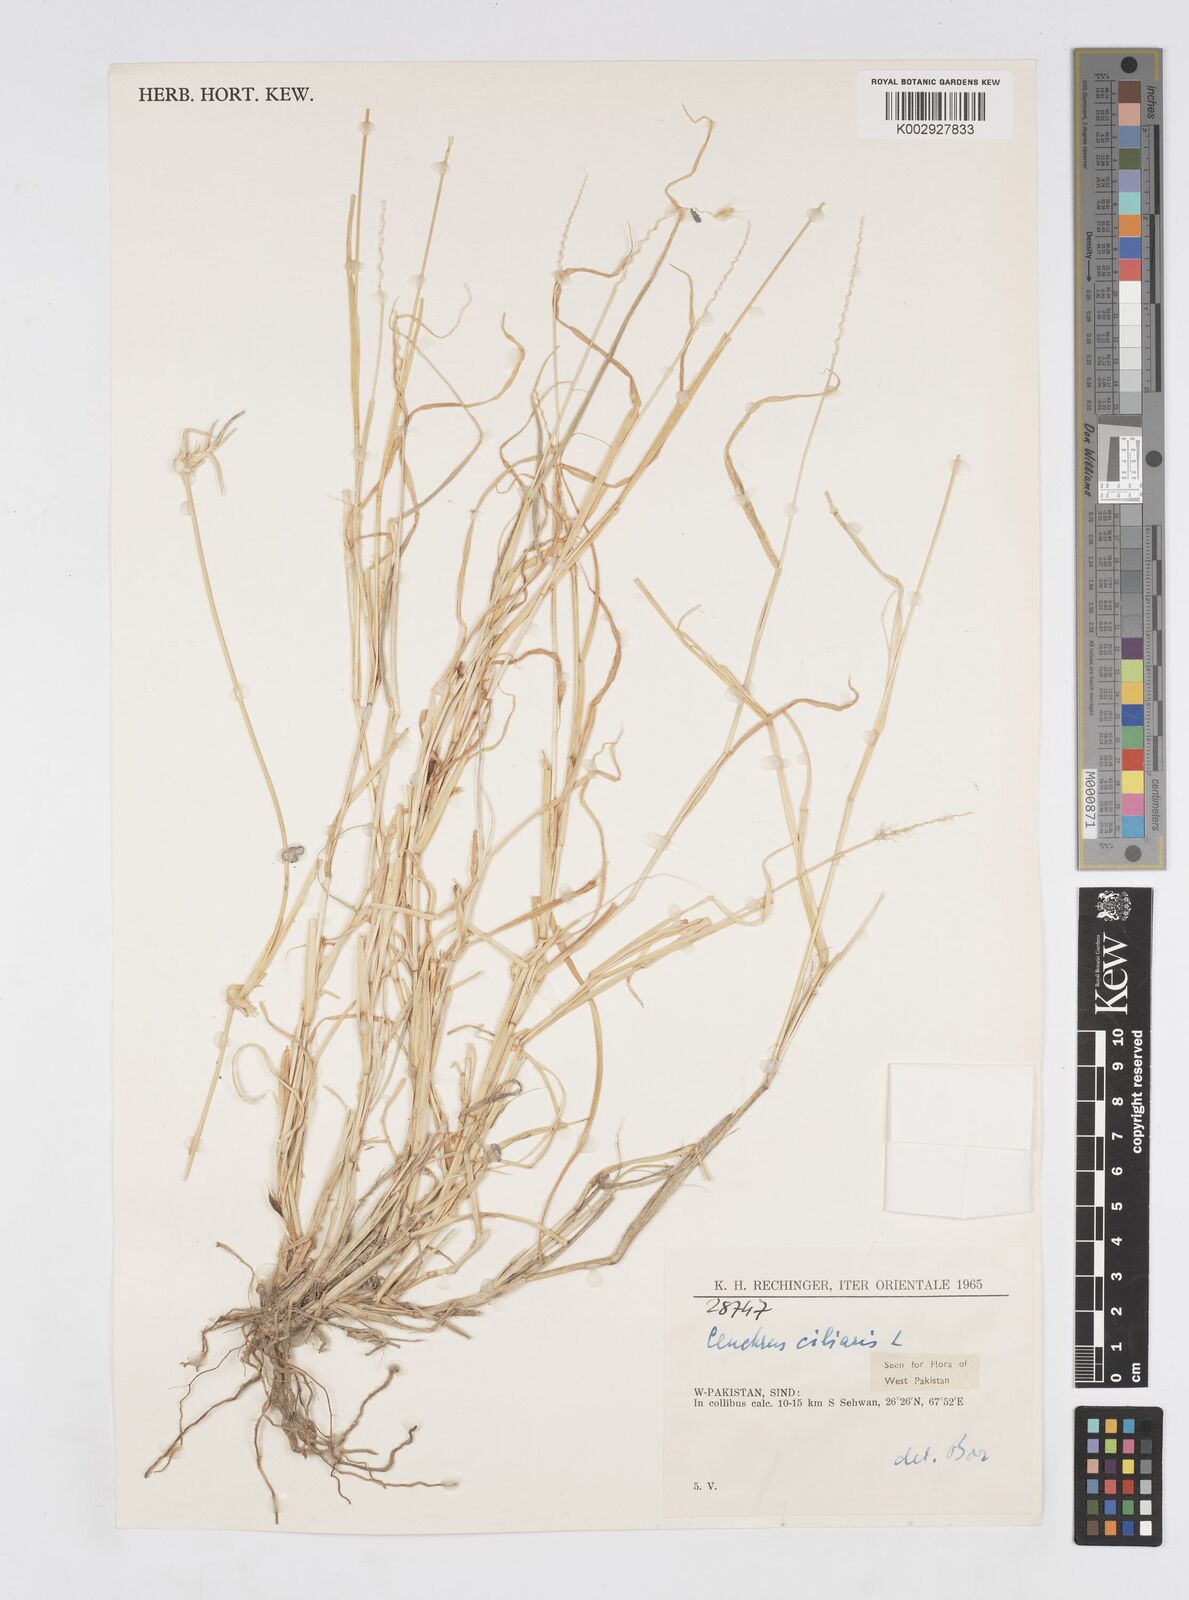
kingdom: Plantae
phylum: Tracheophyta
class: Liliopsida
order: Poales
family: Poaceae
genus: Cenchrus
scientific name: Cenchrus ciliaris
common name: Buffelgrass
